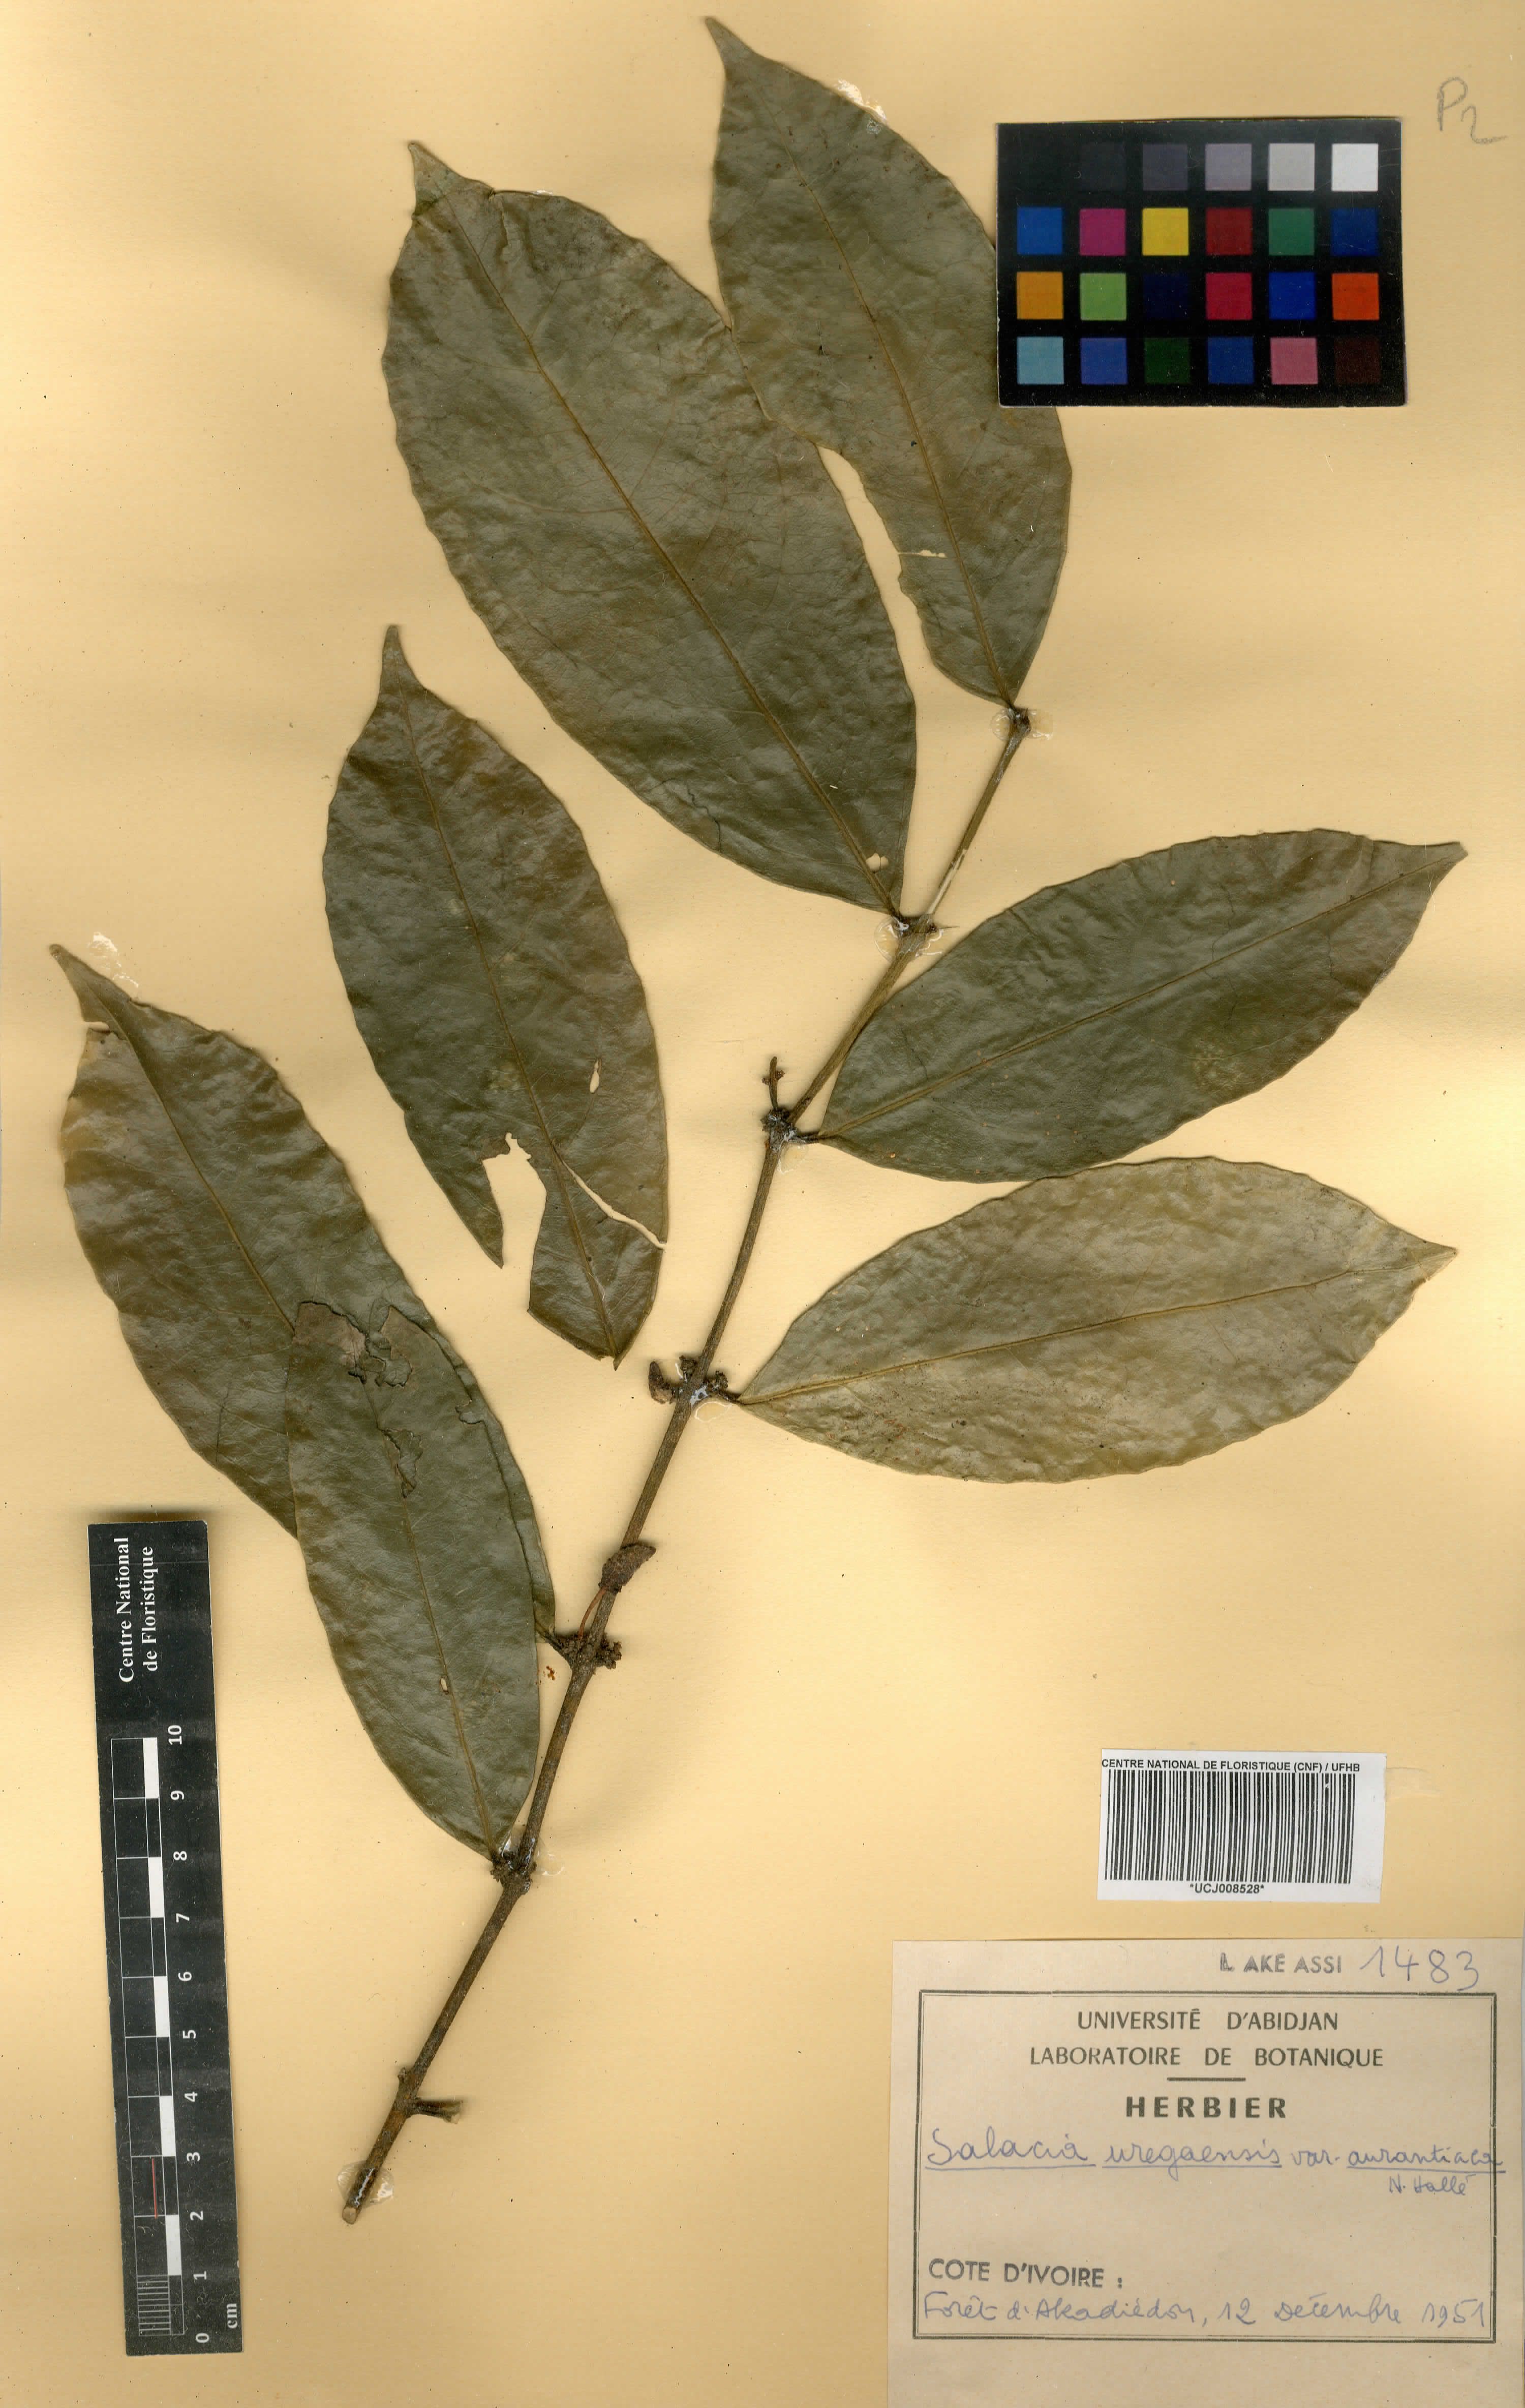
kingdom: Plantae
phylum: Tracheophyta
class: Magnoliopsida
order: Celastrales
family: Celastraceae
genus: Salacia
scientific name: Salacia lehmbachii
